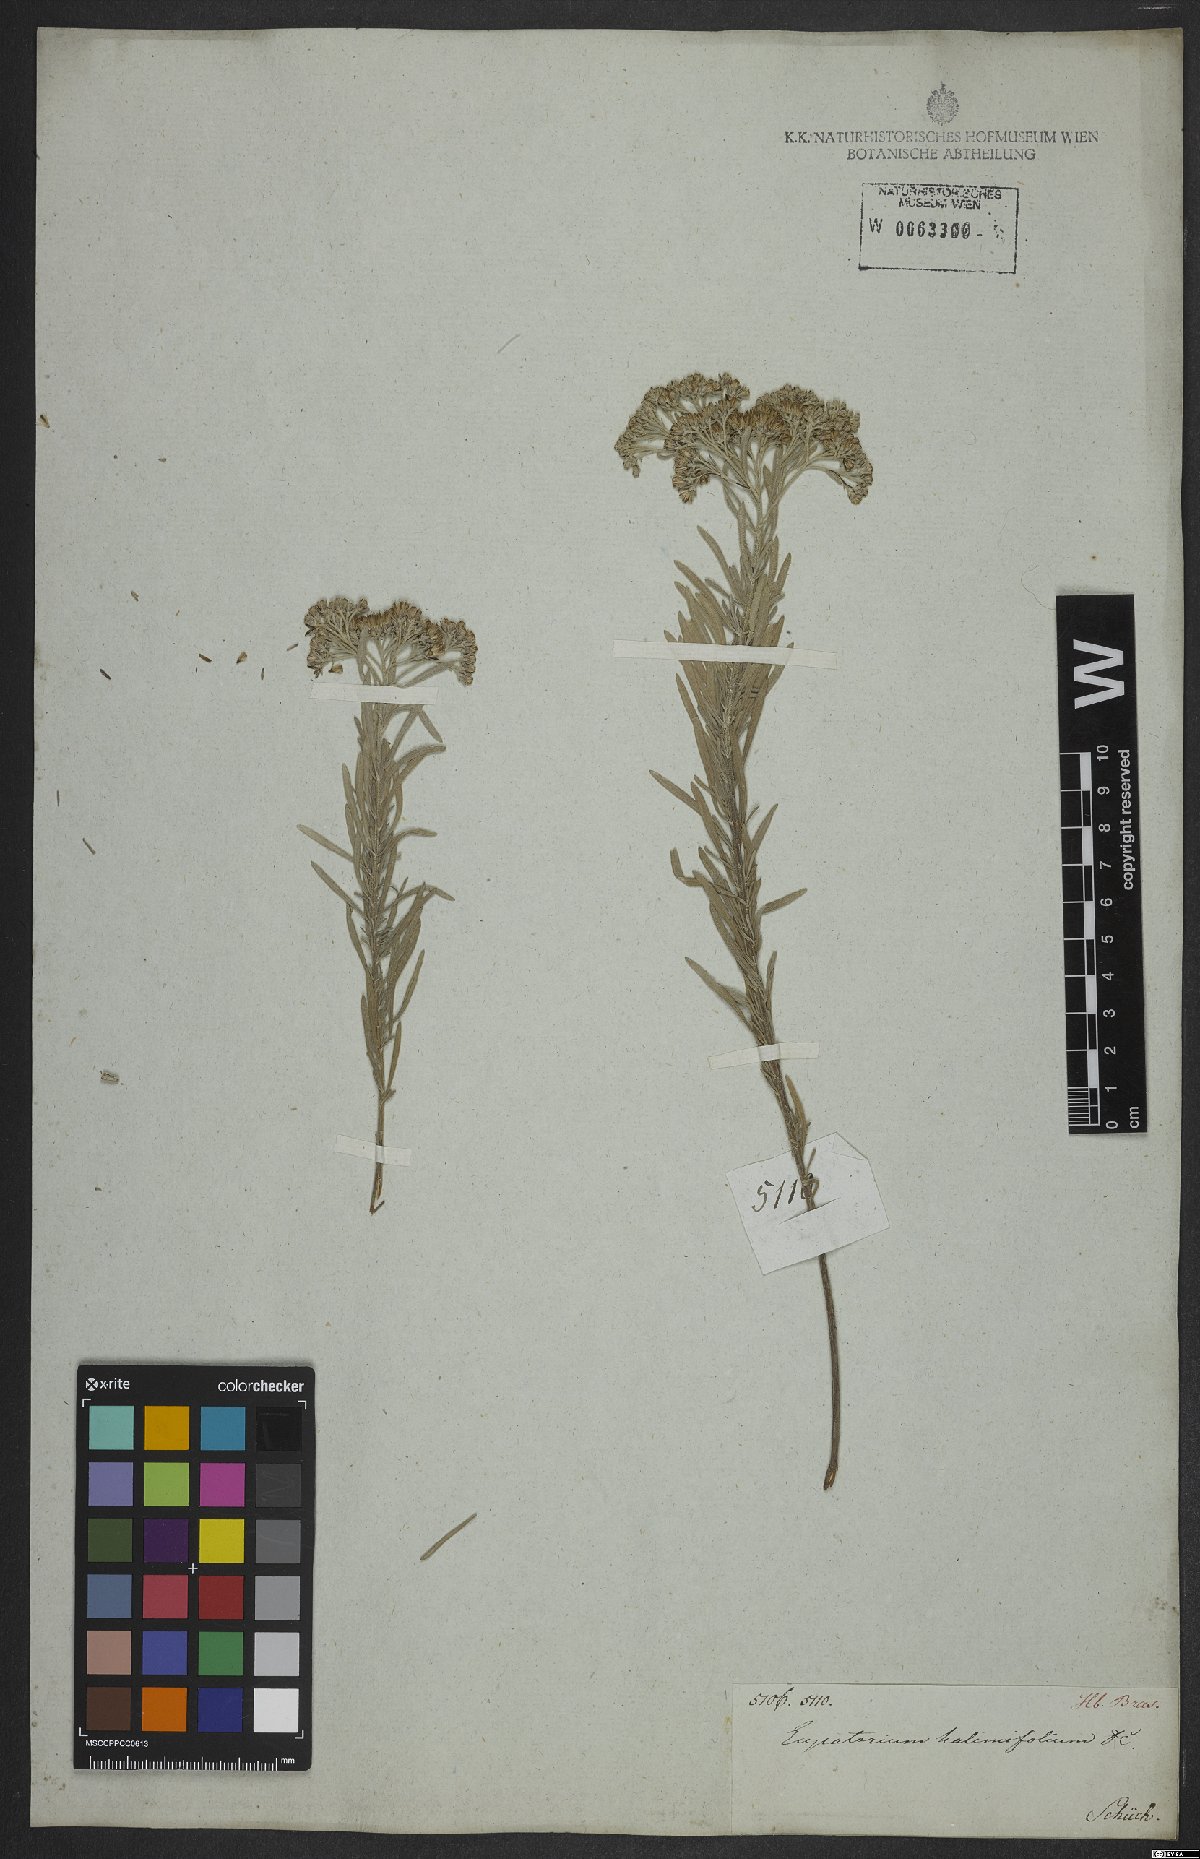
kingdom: Plantae
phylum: Tracheophyta
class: Magnoliopsida
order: Asterales
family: Asteraceae
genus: Disynaphia
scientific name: Disynaphia halimifolia
